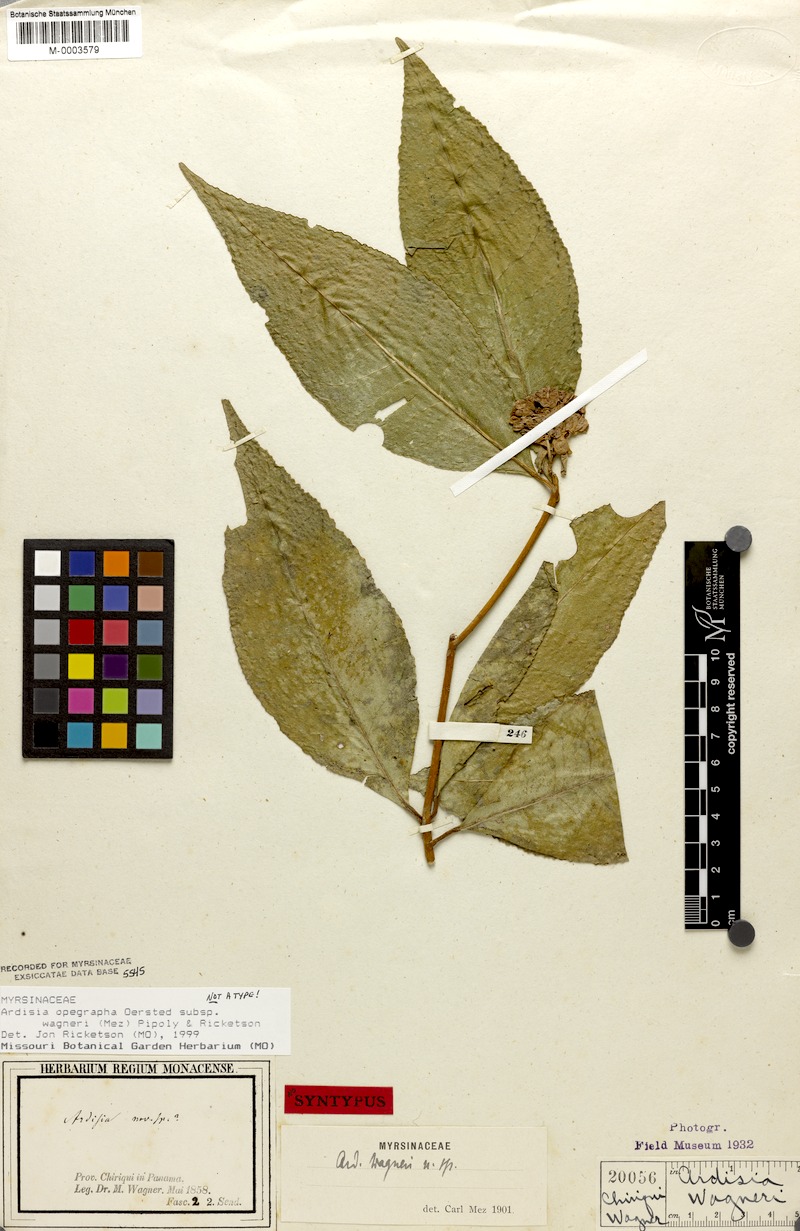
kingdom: Plantae
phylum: Tracheophyta
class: Magnoliopsida
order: Ericales
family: Primulaceae
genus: Ardisia
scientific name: Ardisia opegrapha
